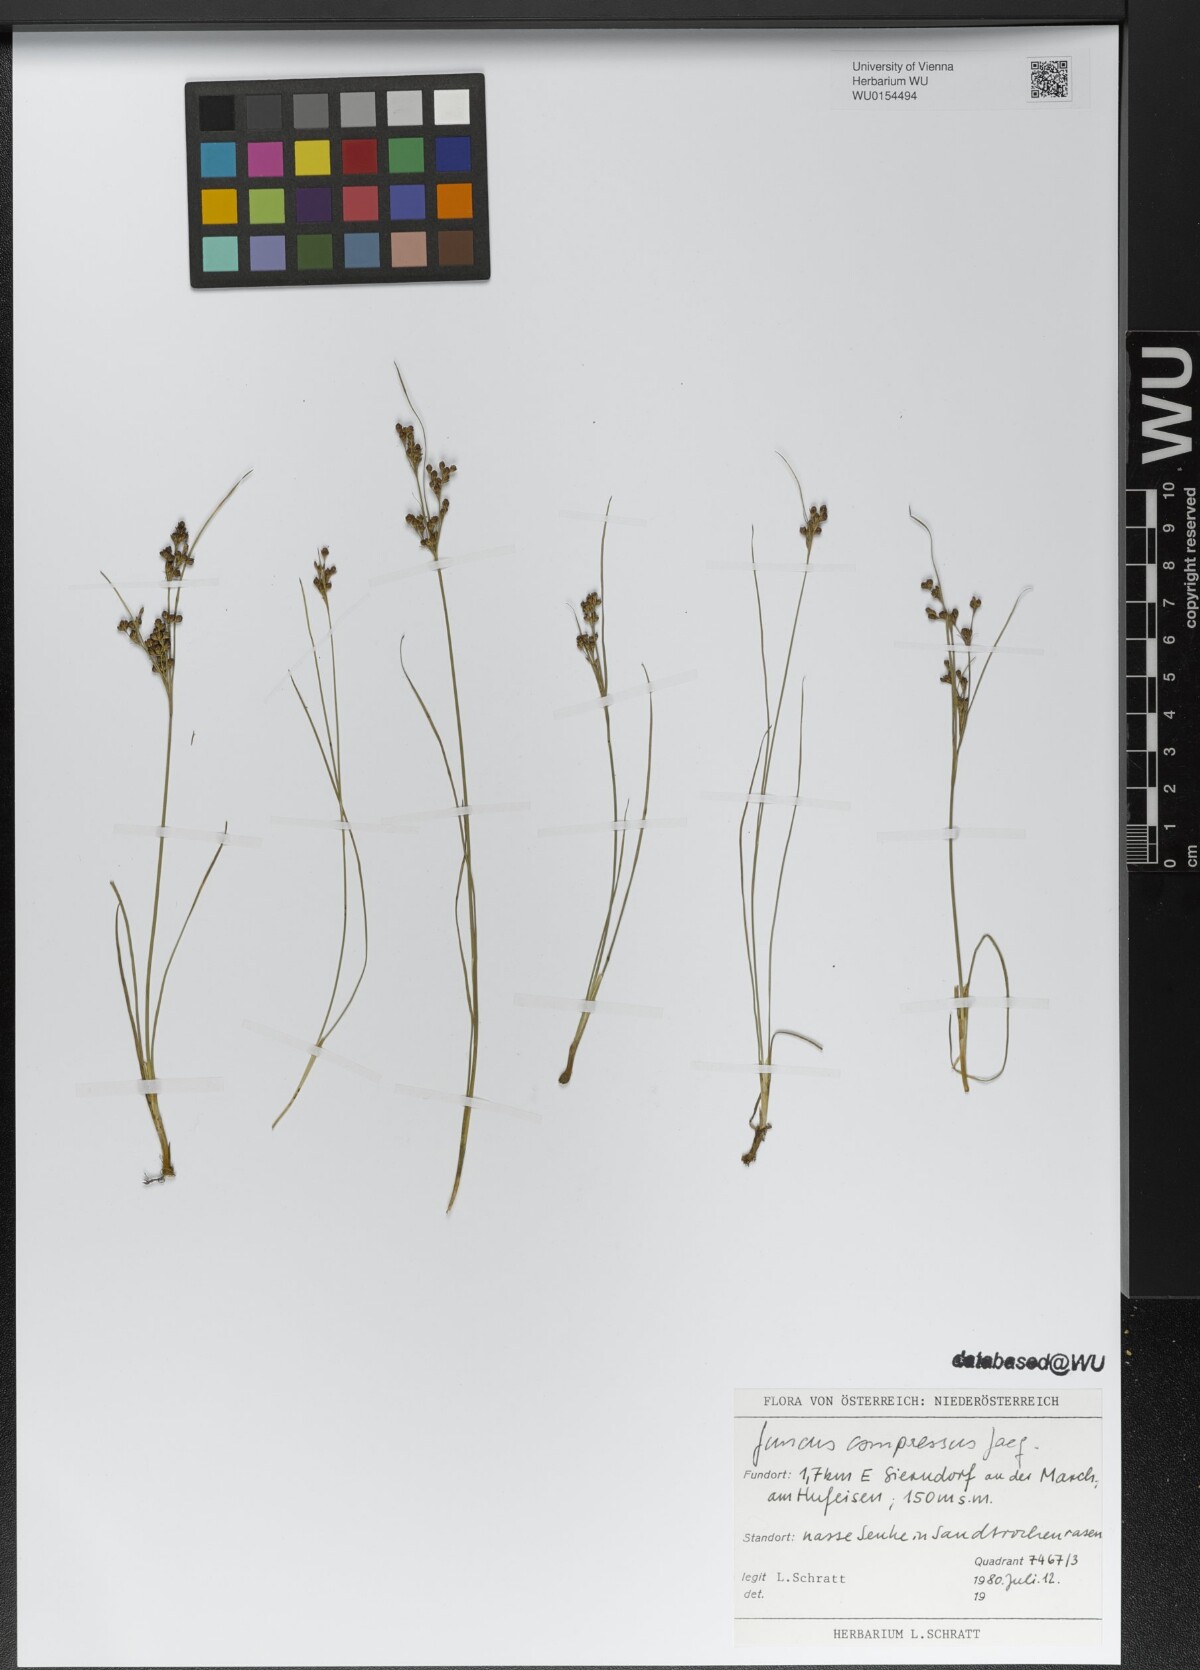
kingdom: Plantae
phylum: Tracheophyta
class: Liliopsida
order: Poales
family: Juncaceae
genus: Juncus
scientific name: Juncus compressus
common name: Round-fruited rush
